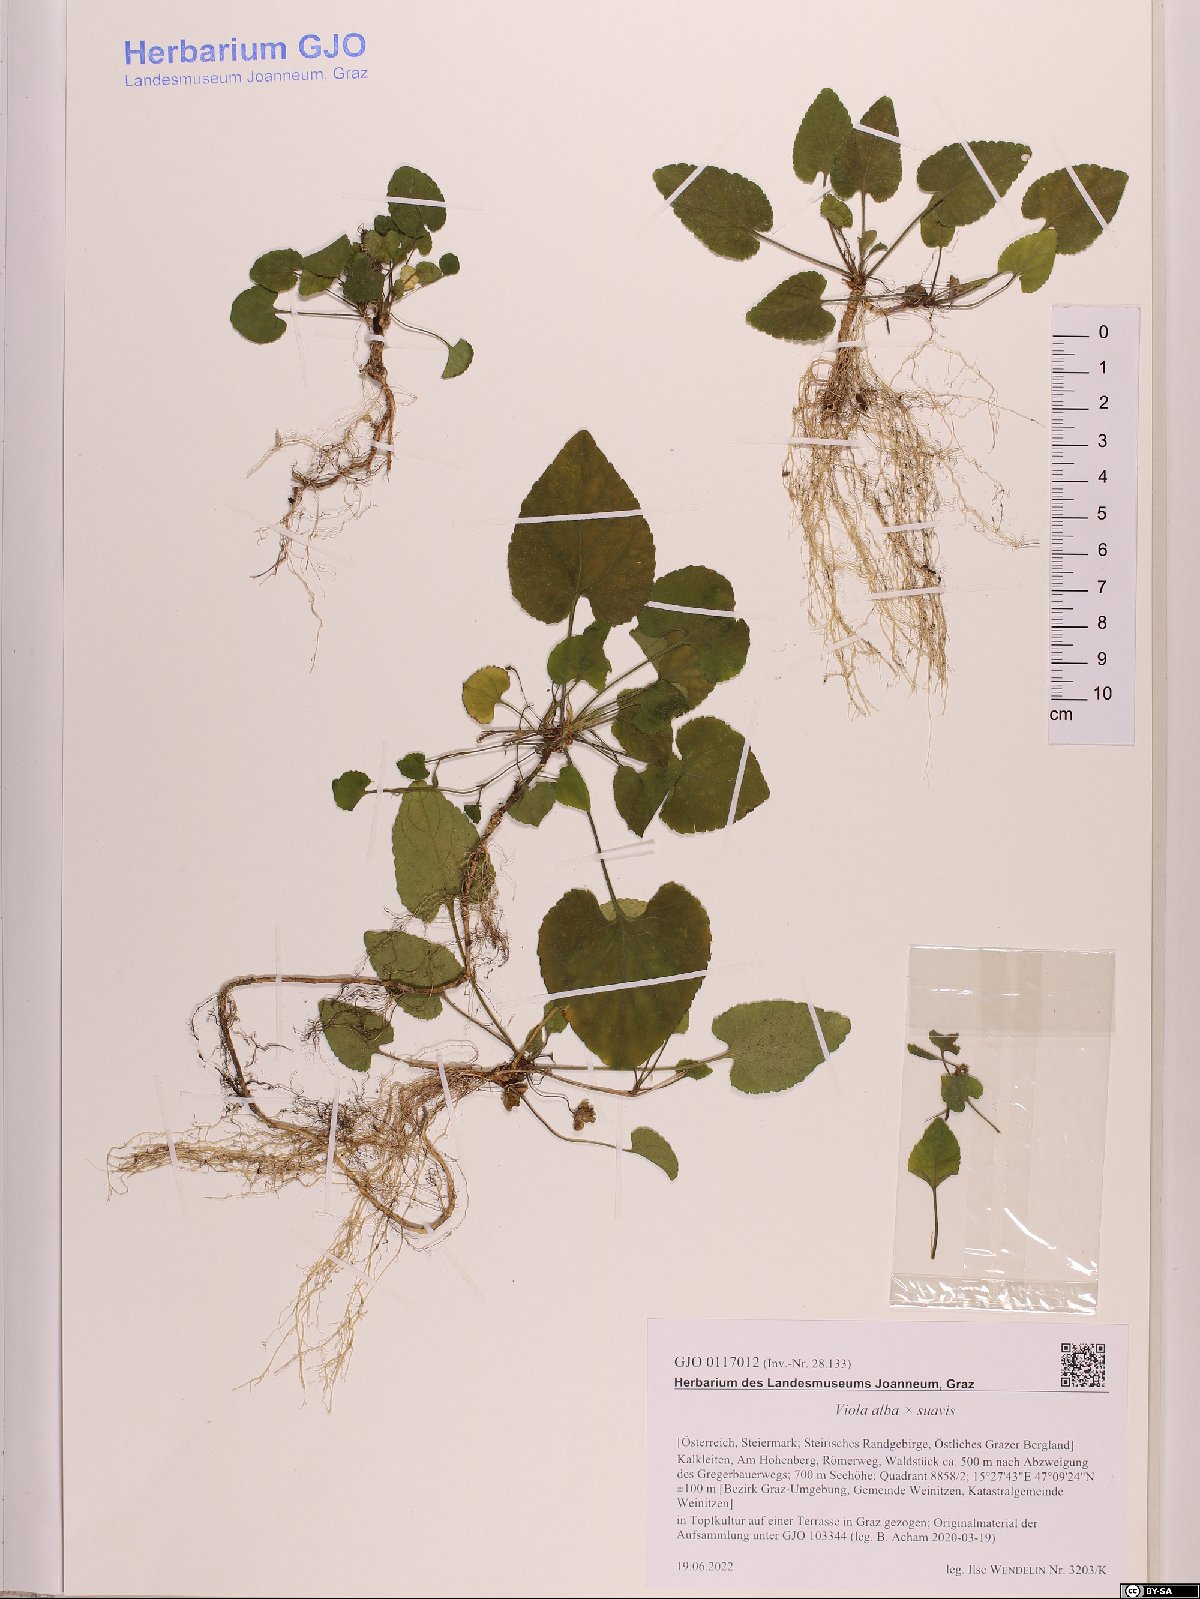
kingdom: Plantae
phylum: Tracheophyta
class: Magnoliopsida
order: Malpighiales
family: Violaceae
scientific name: Violaceae
